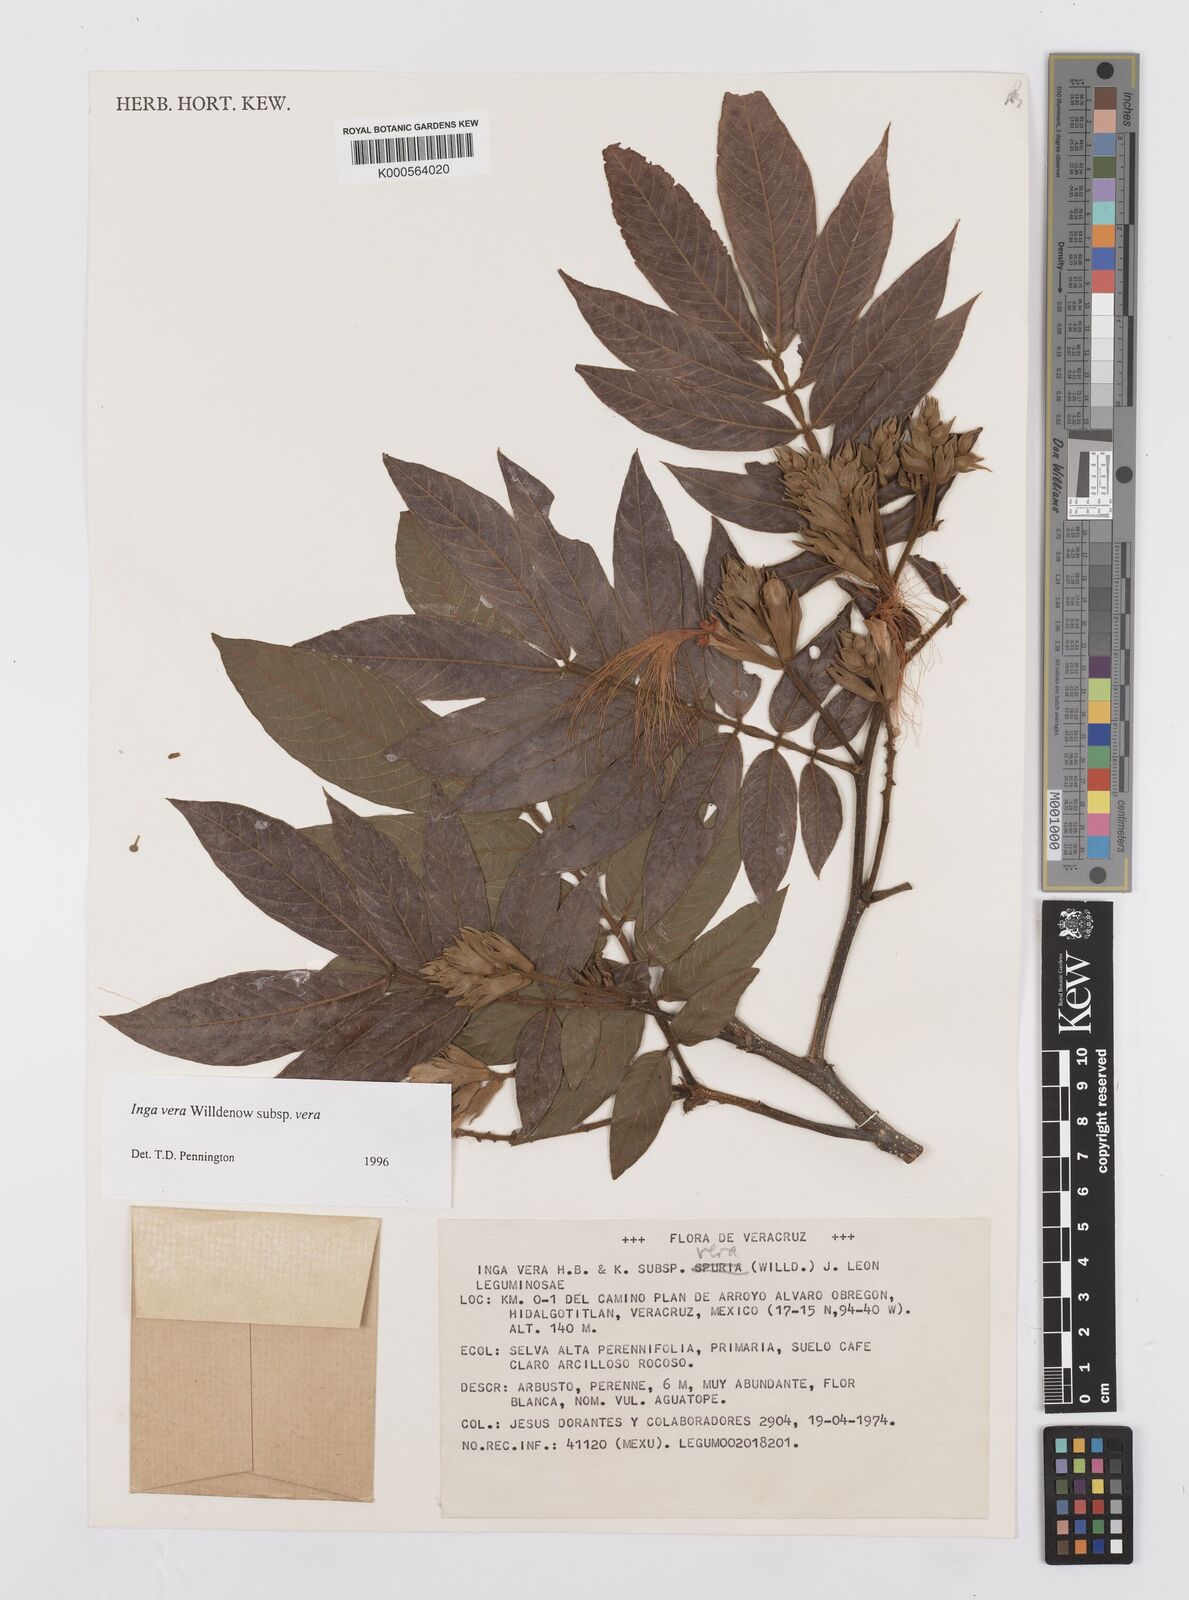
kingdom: Plantae
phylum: Tracheophyta
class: Magnoliopsida
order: Fabales
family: Fabaceae
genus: Inga
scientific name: Inga vera
